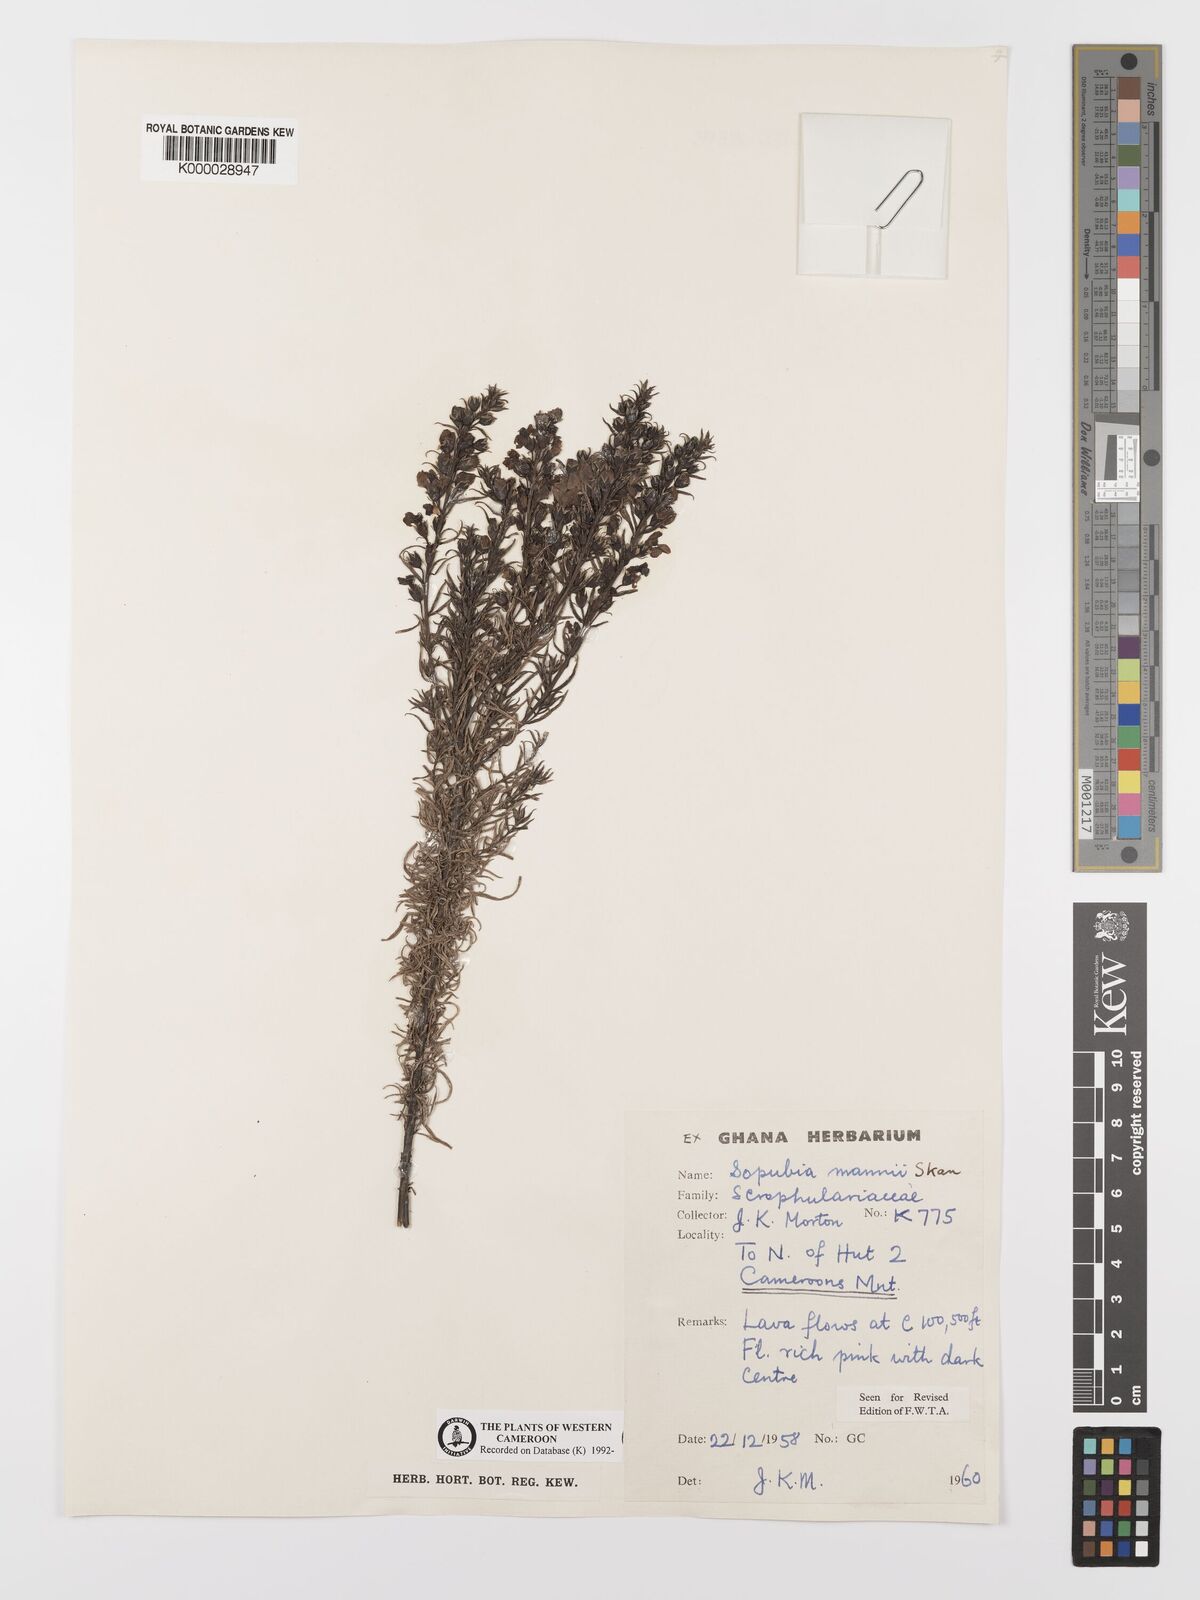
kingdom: Plantae
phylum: Tracheophyta
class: Magnoliopsida
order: Lamiales
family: Orobanchaceae
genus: Sopubia
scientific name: Sopubia mannii
